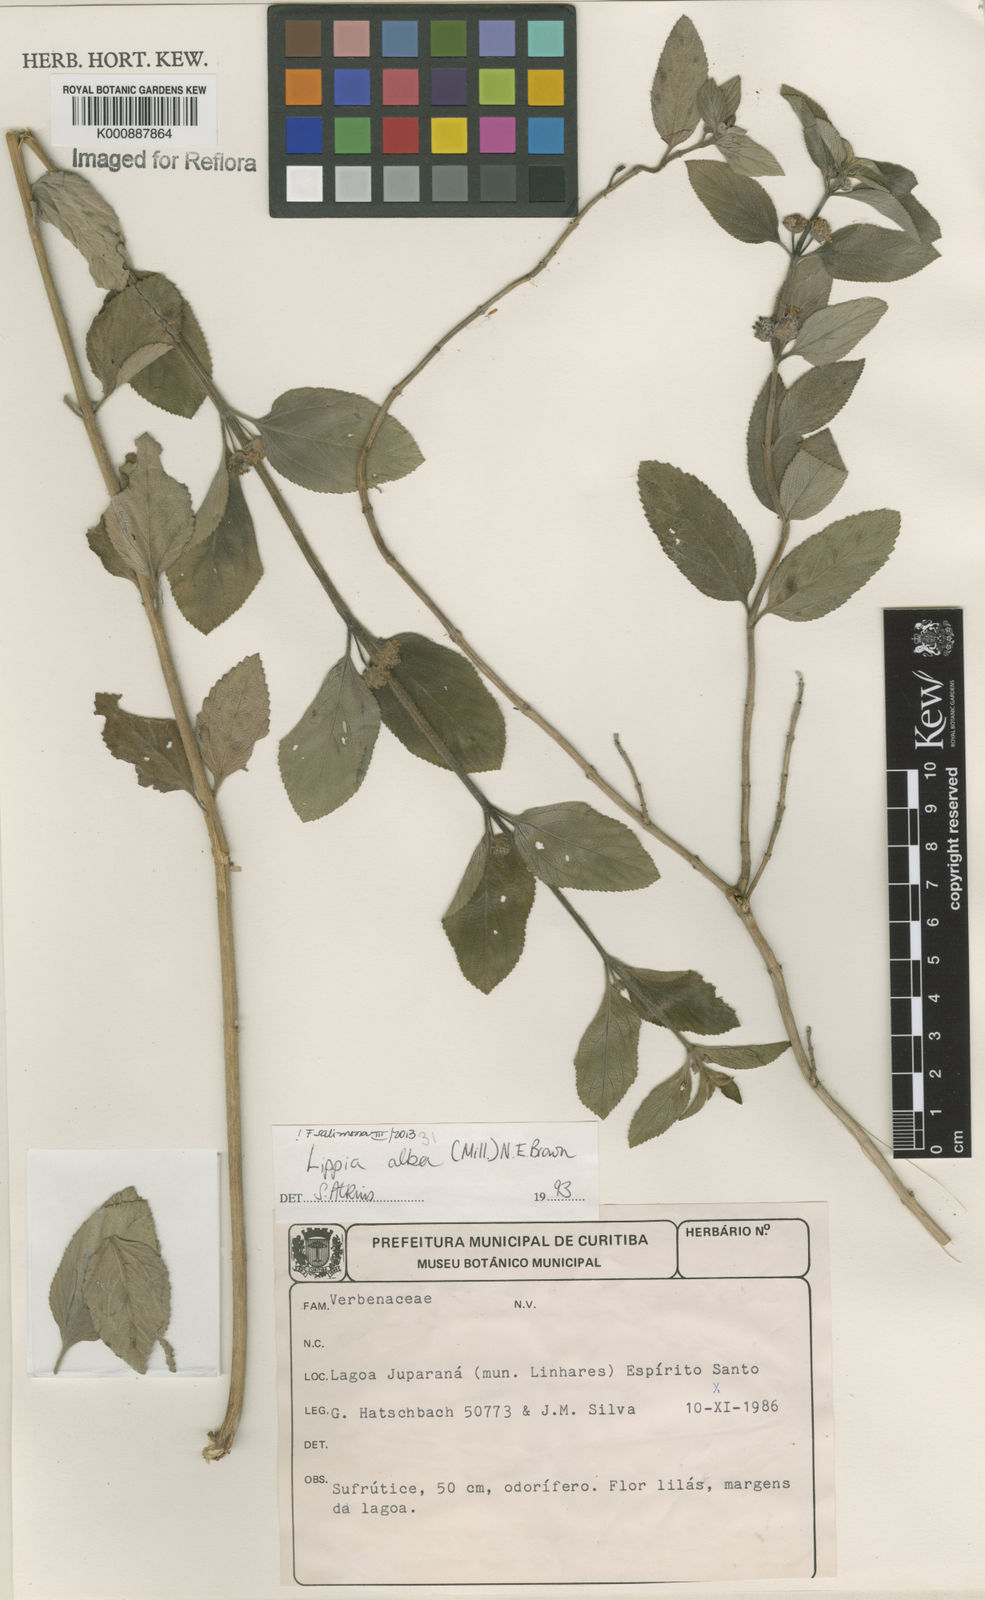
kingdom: Plantae
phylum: Tracheophyta
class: Magnoliopsida
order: Lamiales
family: Verbenaceae
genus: Lippia
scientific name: Lippia
